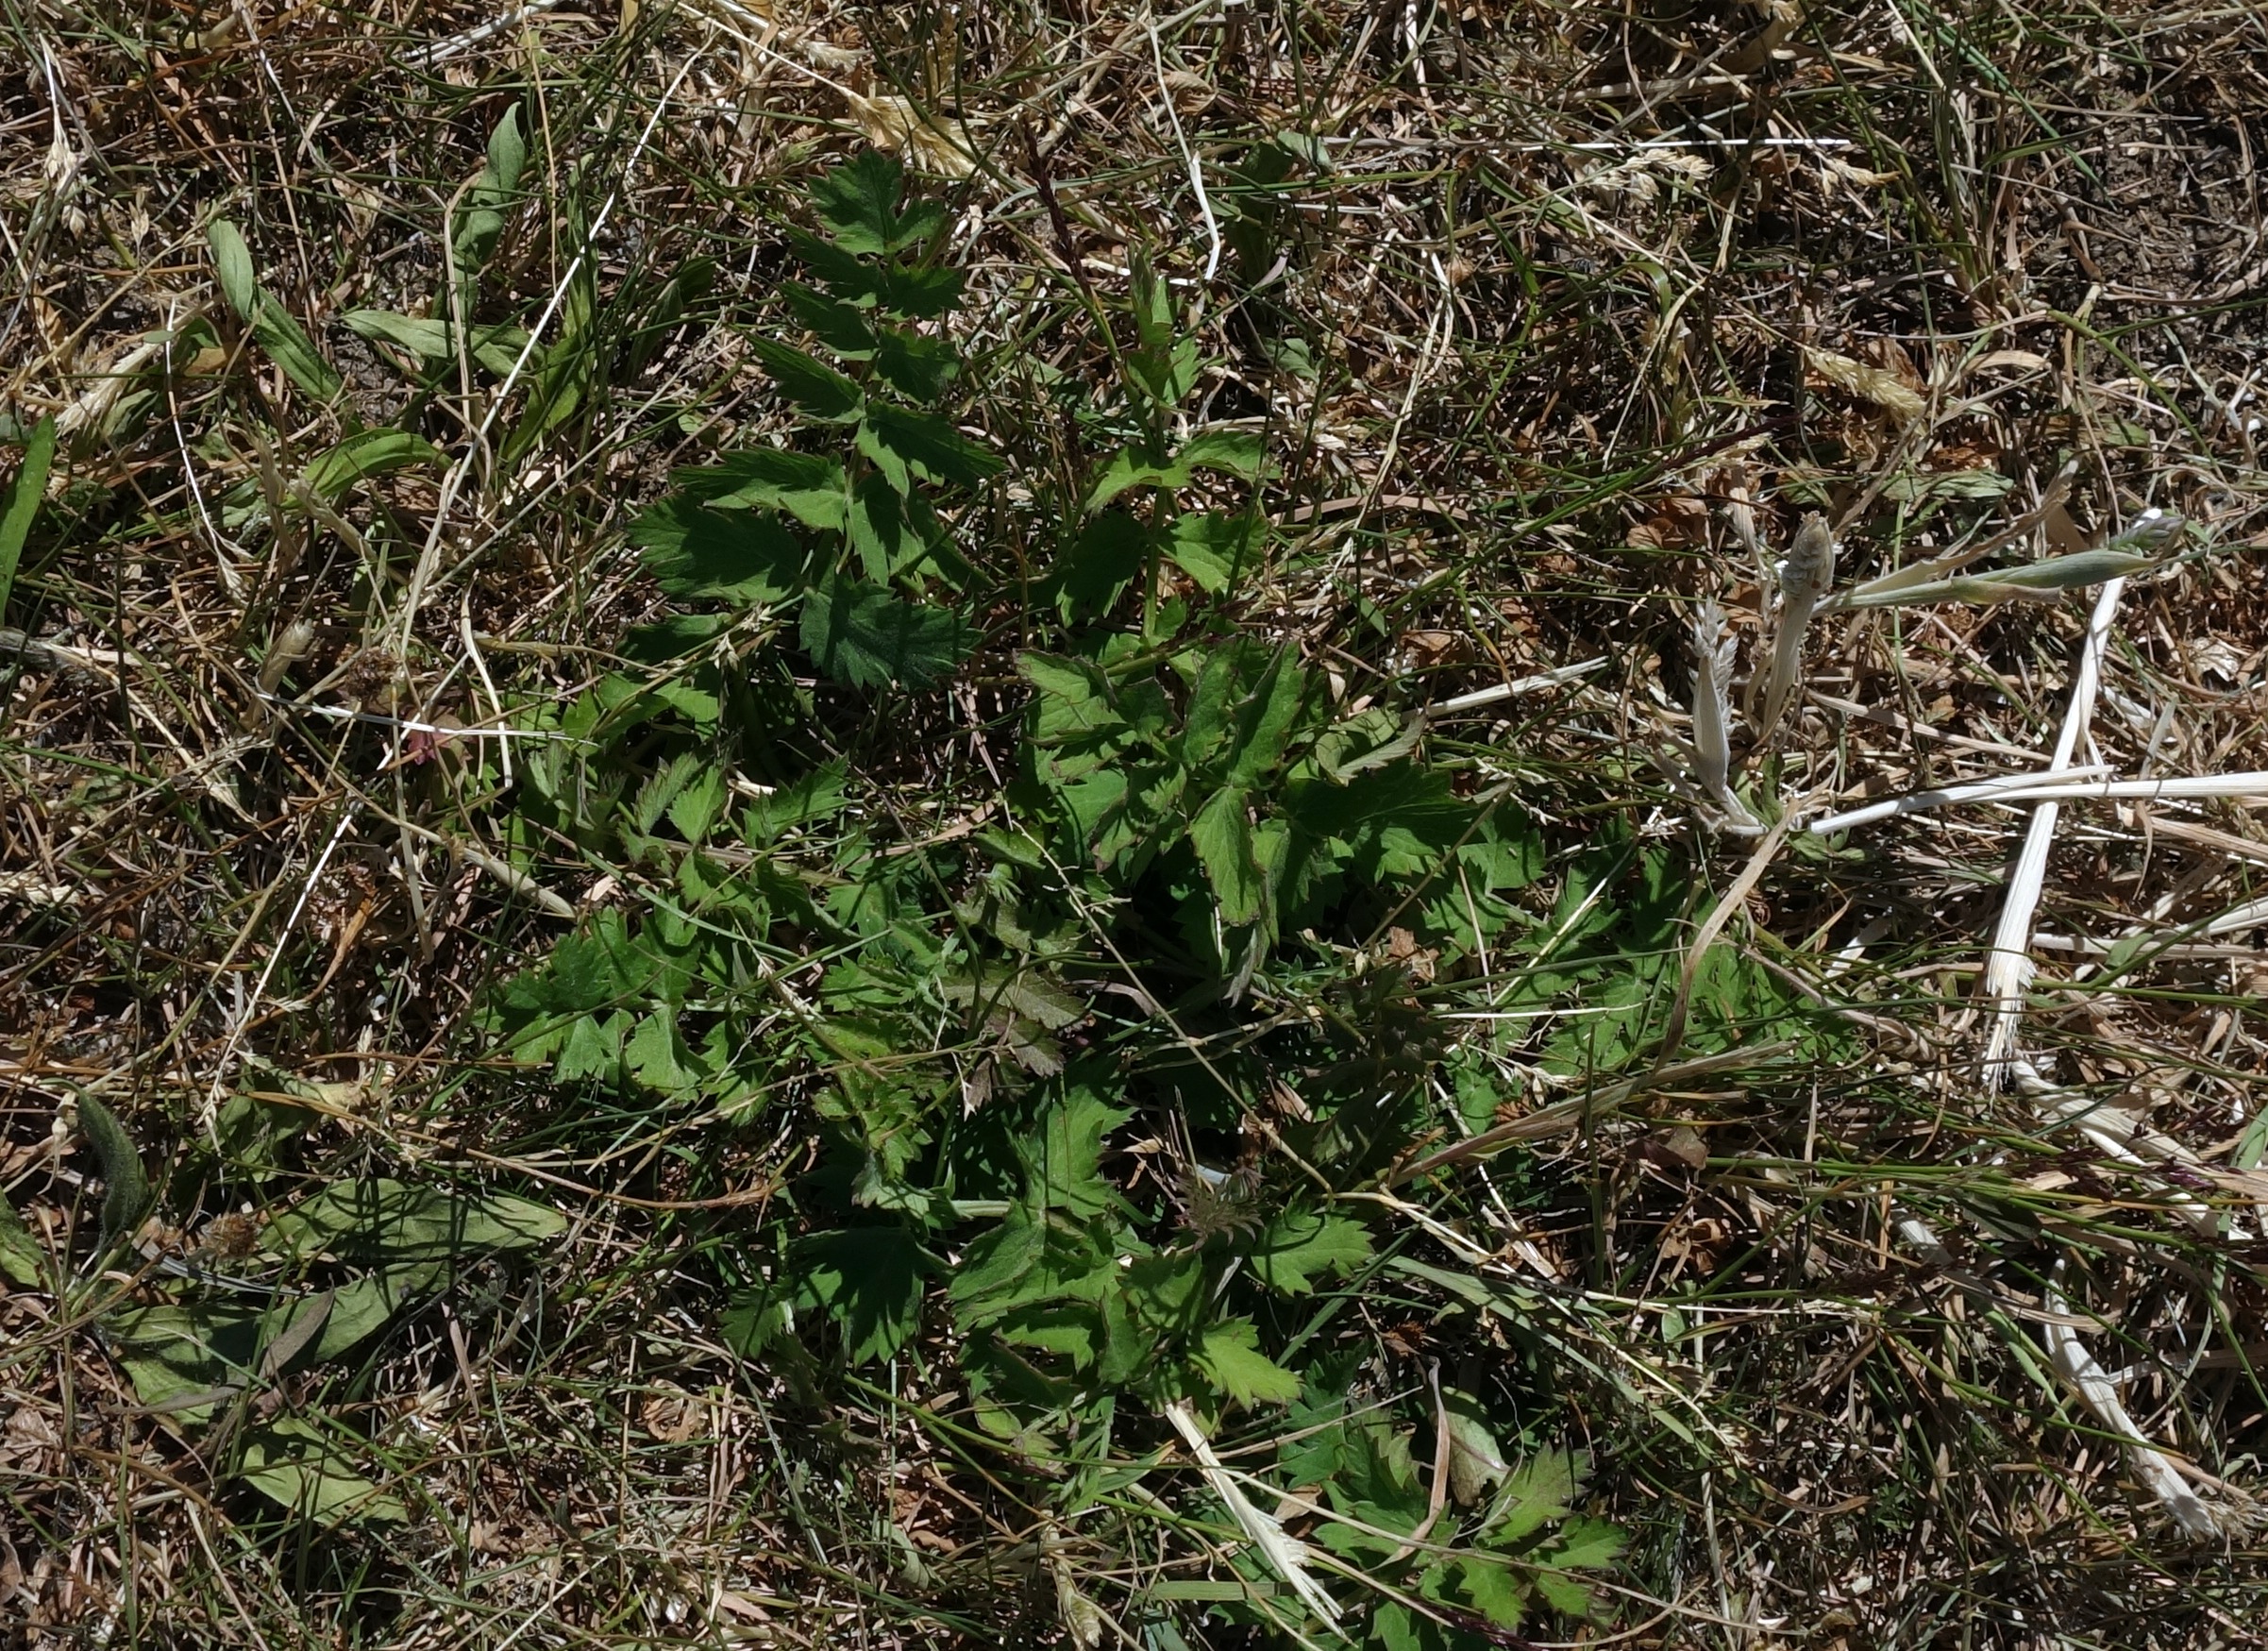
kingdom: Plantae
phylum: Tracheophyta
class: Magnoliopsida
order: Apiales
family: Apiaceae
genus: Pimpinella
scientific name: Pimpinella saxifraga
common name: Almindelig pimpinelle
